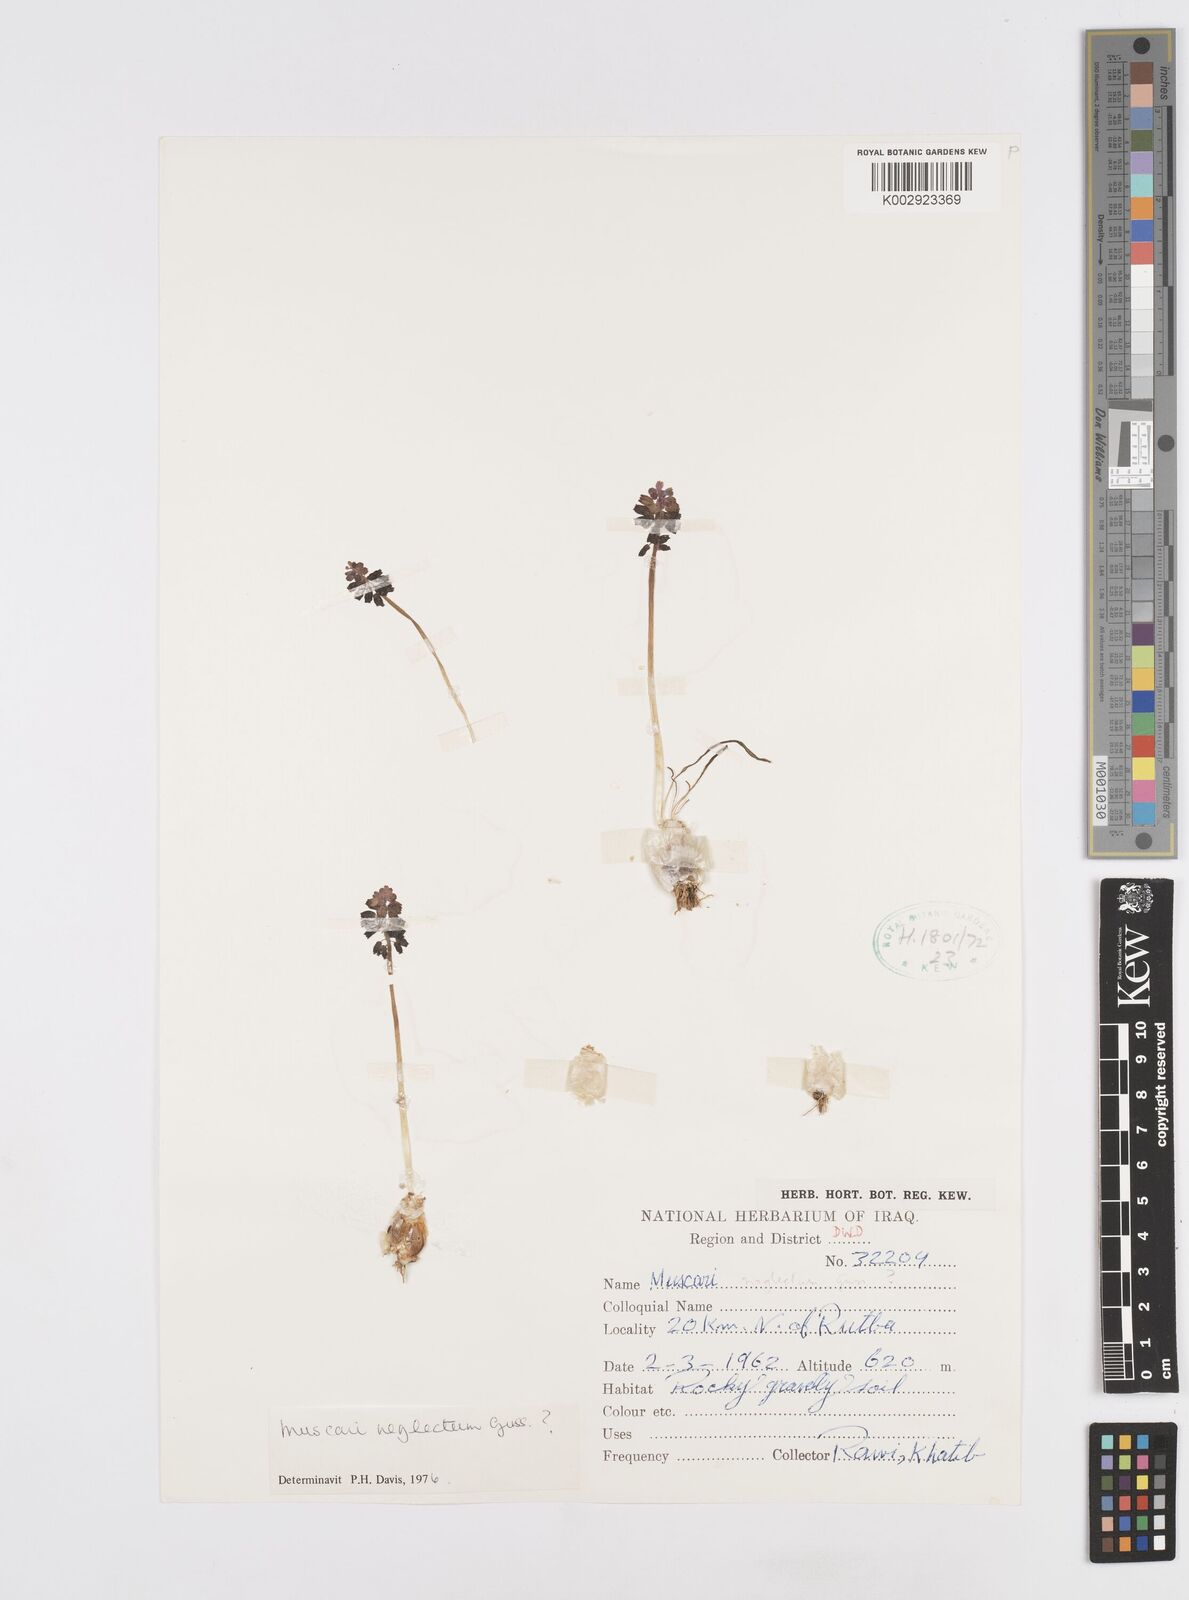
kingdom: Plantae
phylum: Tracheophyta
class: Liliopsida
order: Asparagales
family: Asparagaceae
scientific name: Asparagaceae
